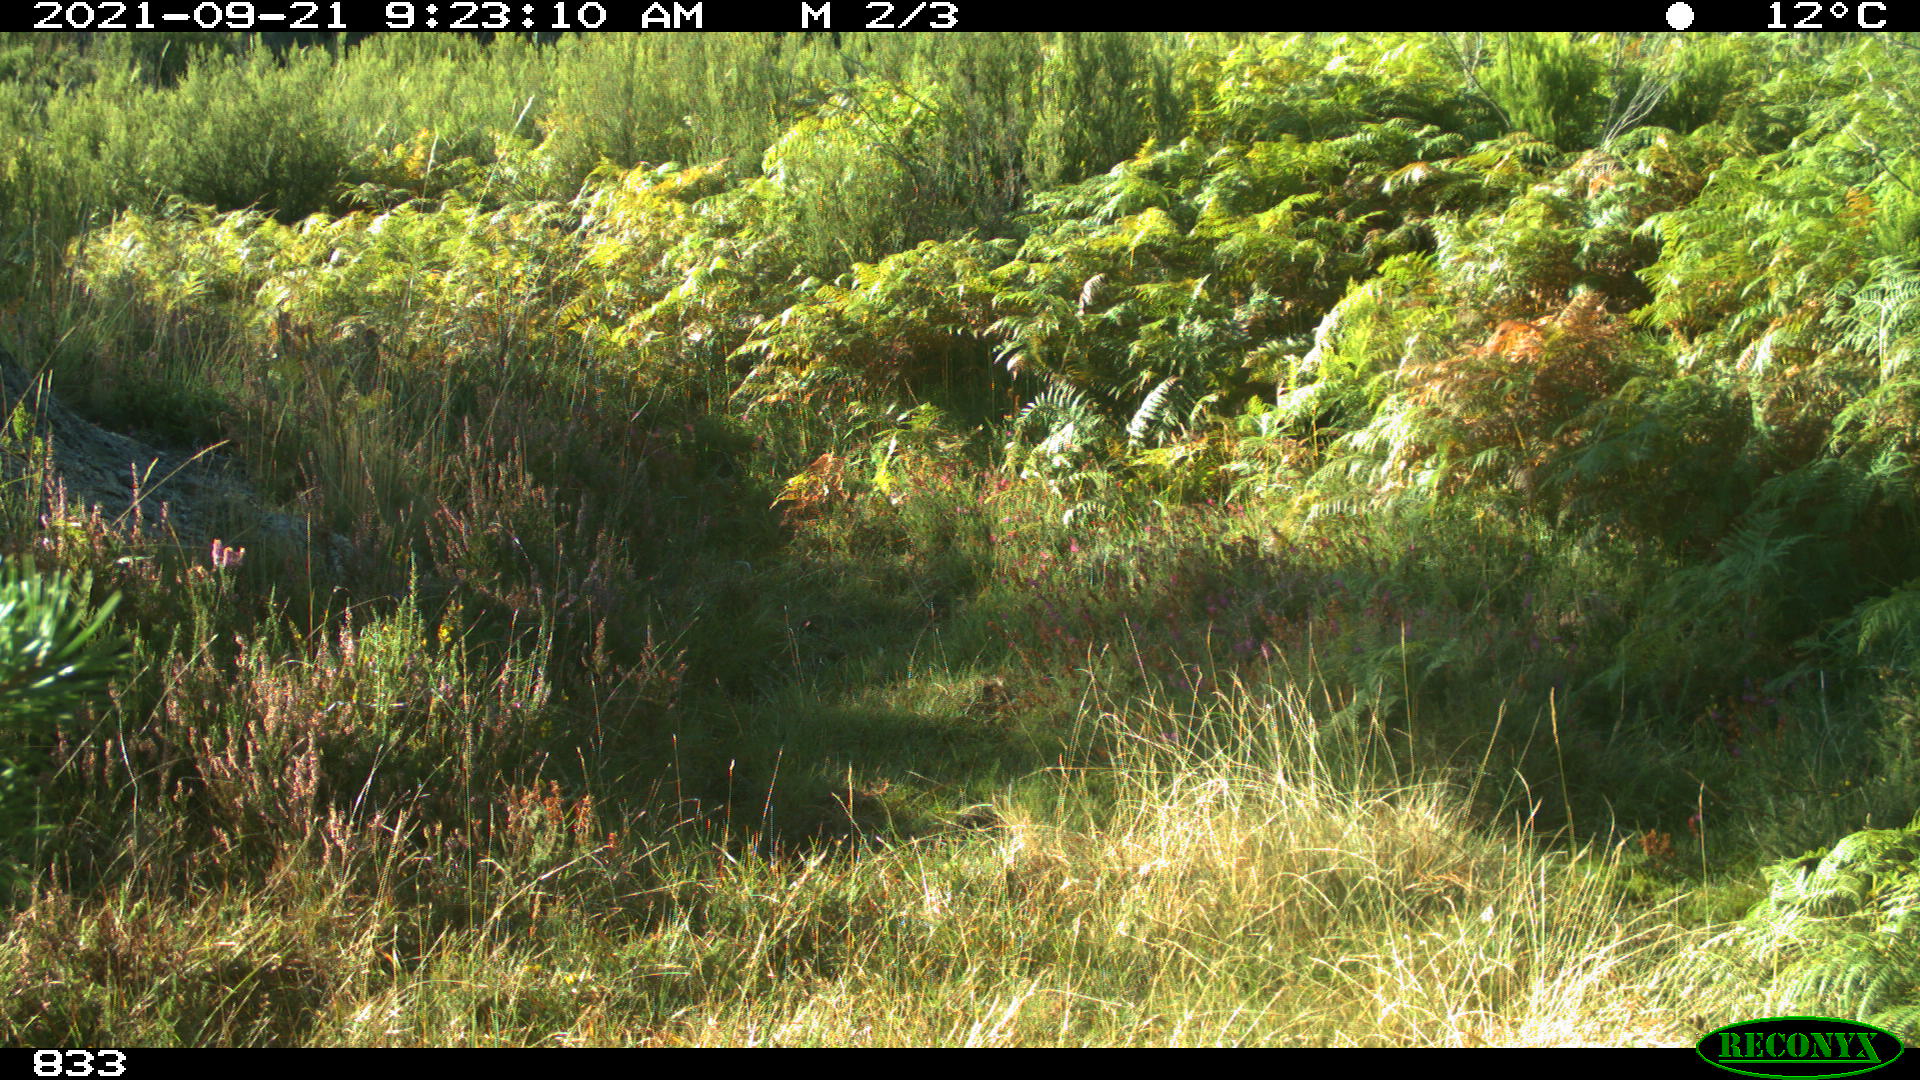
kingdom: Animalia
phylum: Chordata
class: Mammalia
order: Artiodactyla
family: Bovidae
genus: Bos
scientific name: Bos taurus
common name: Domesticated cattle
